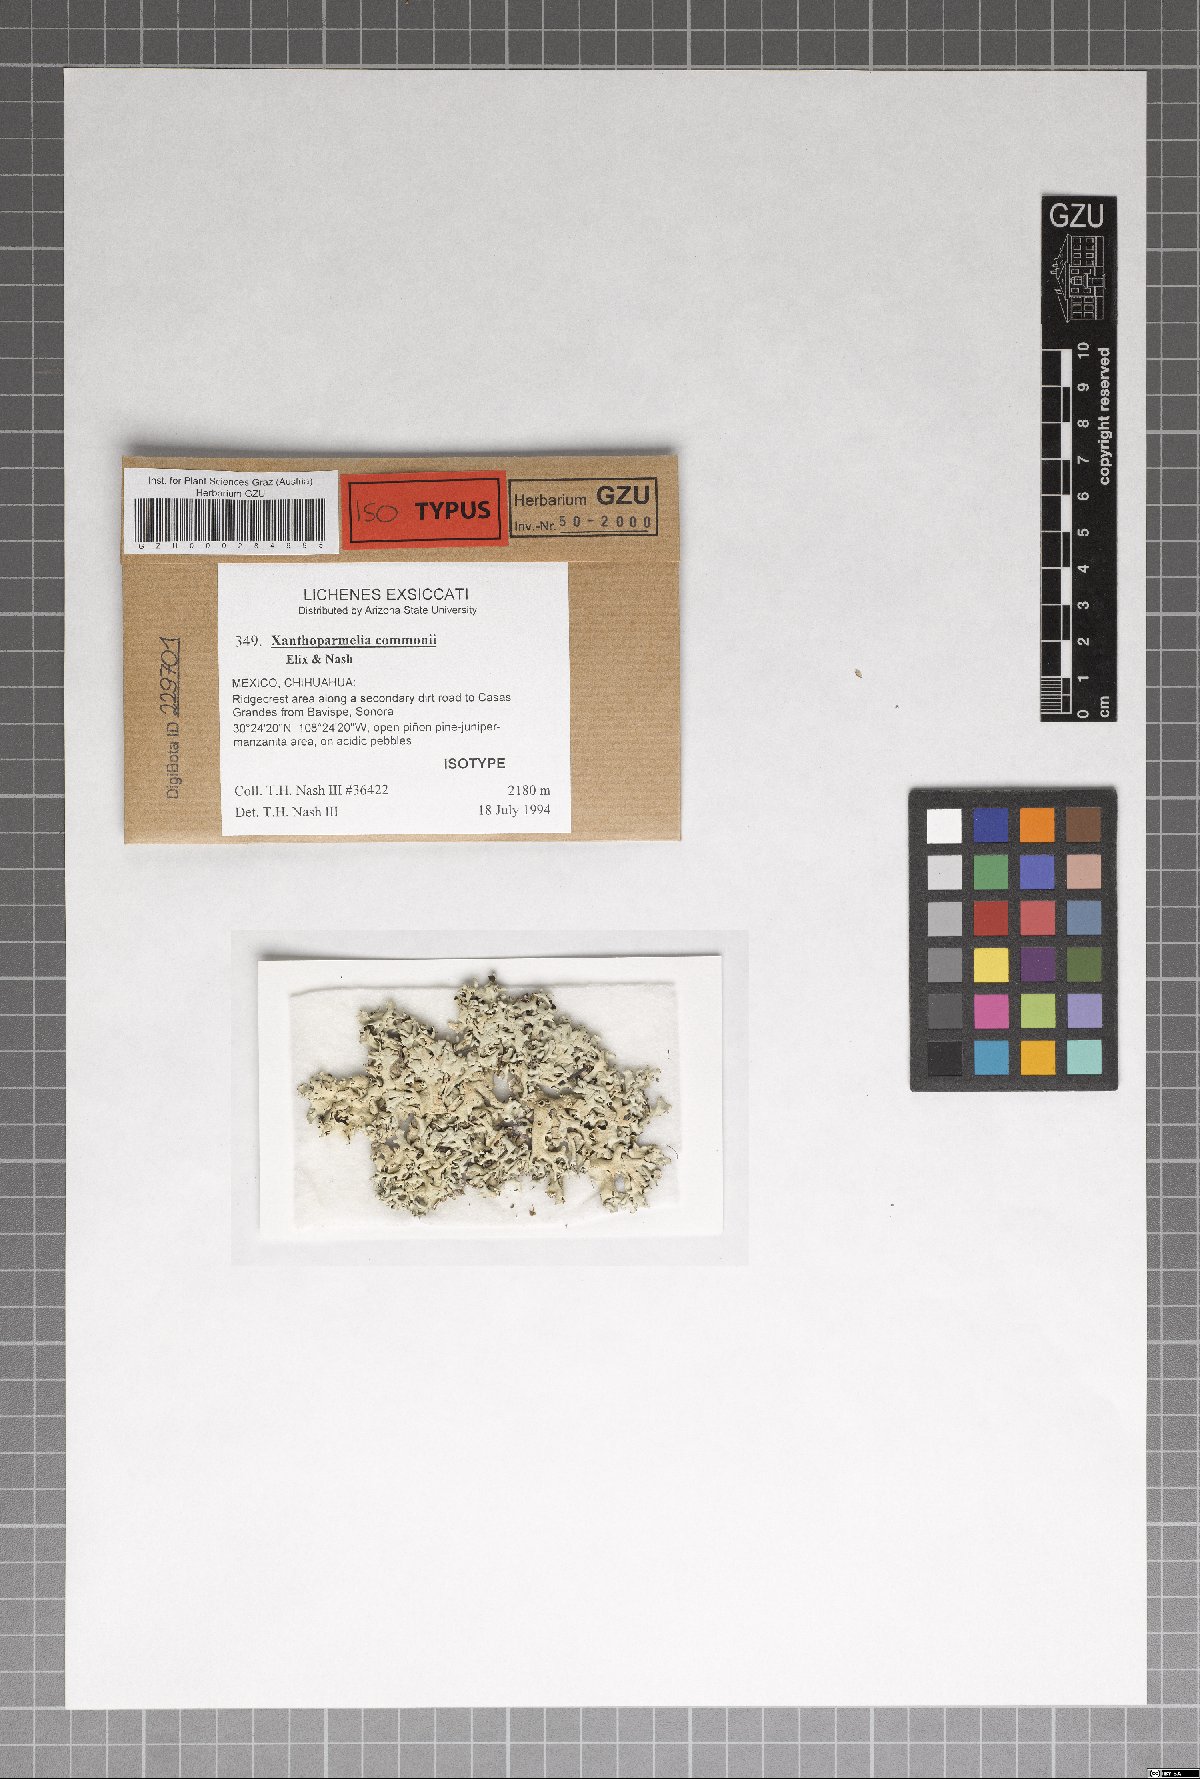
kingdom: Fungi
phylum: Ascomycota
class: Lecanoromycetes
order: Lecanorales
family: Parmeliaceae
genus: Xanthoparmelia
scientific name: Xanthoparmelia commonii
